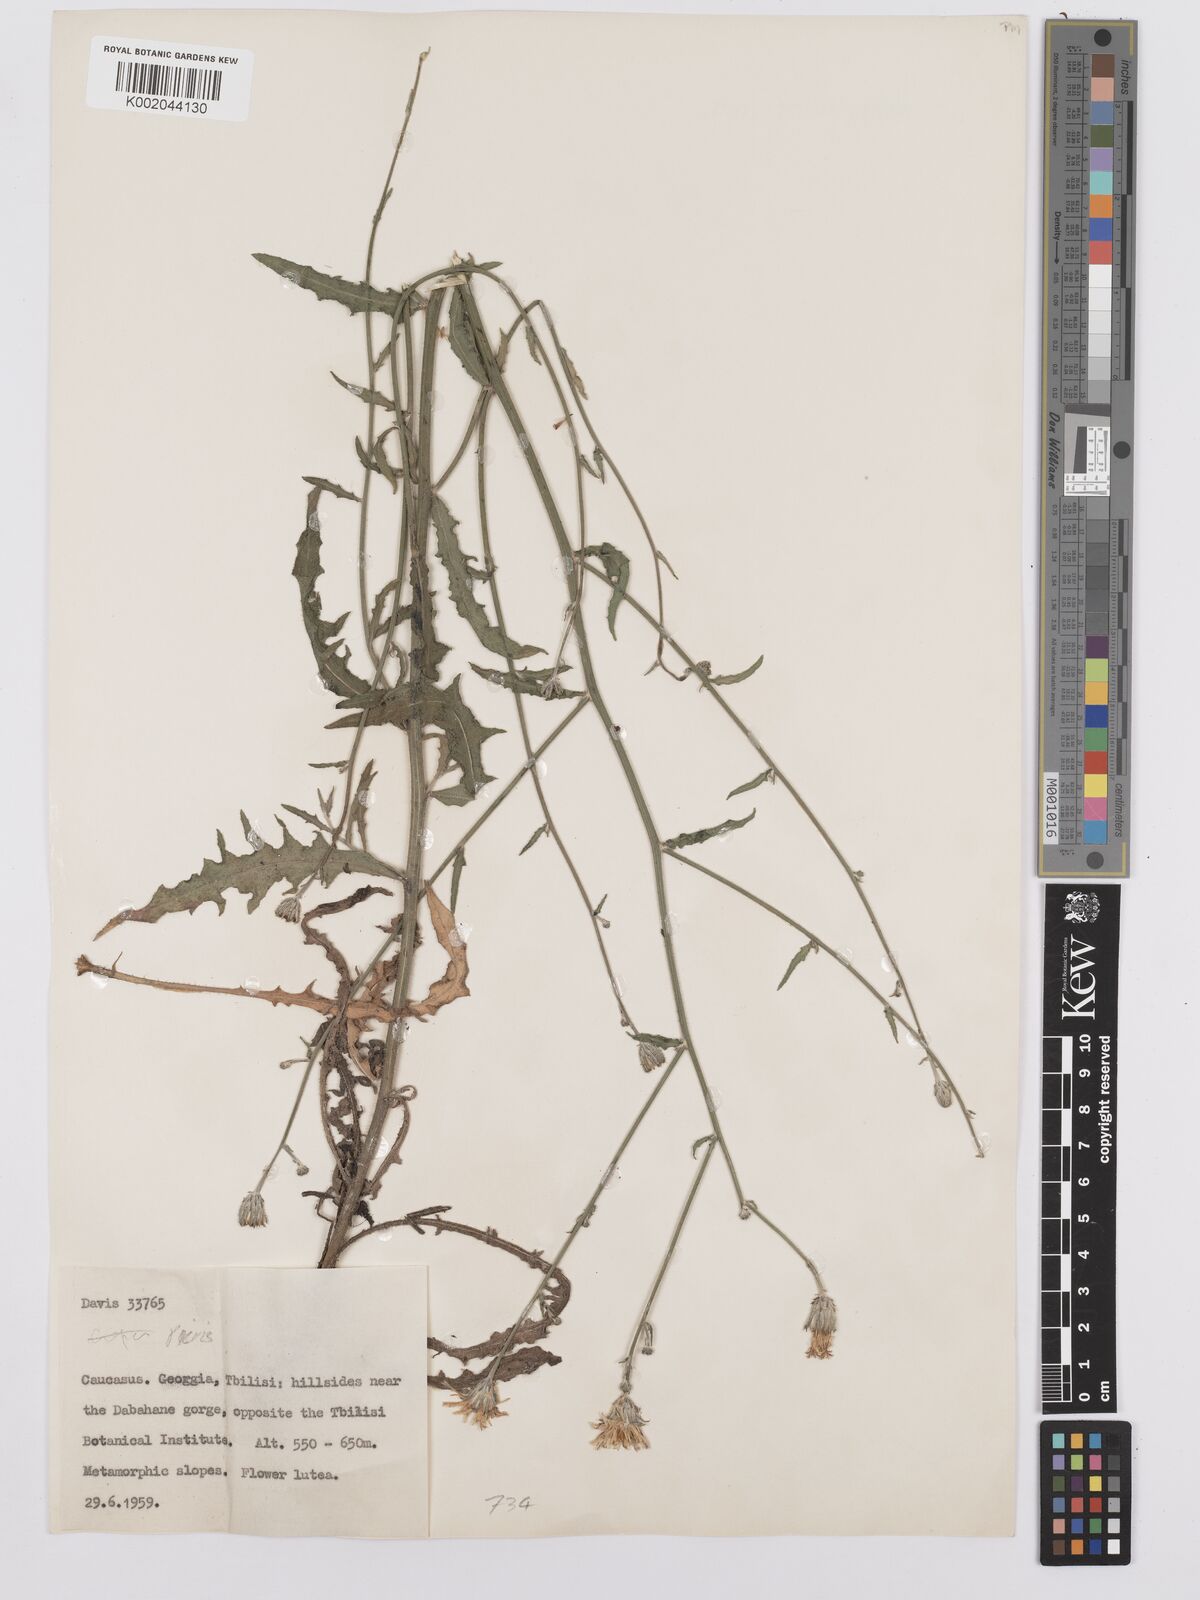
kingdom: Plantae
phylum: Tracheophyta
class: Magnoliopsida
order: Asterales
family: Asteraceae
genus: Picris
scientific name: Picris
